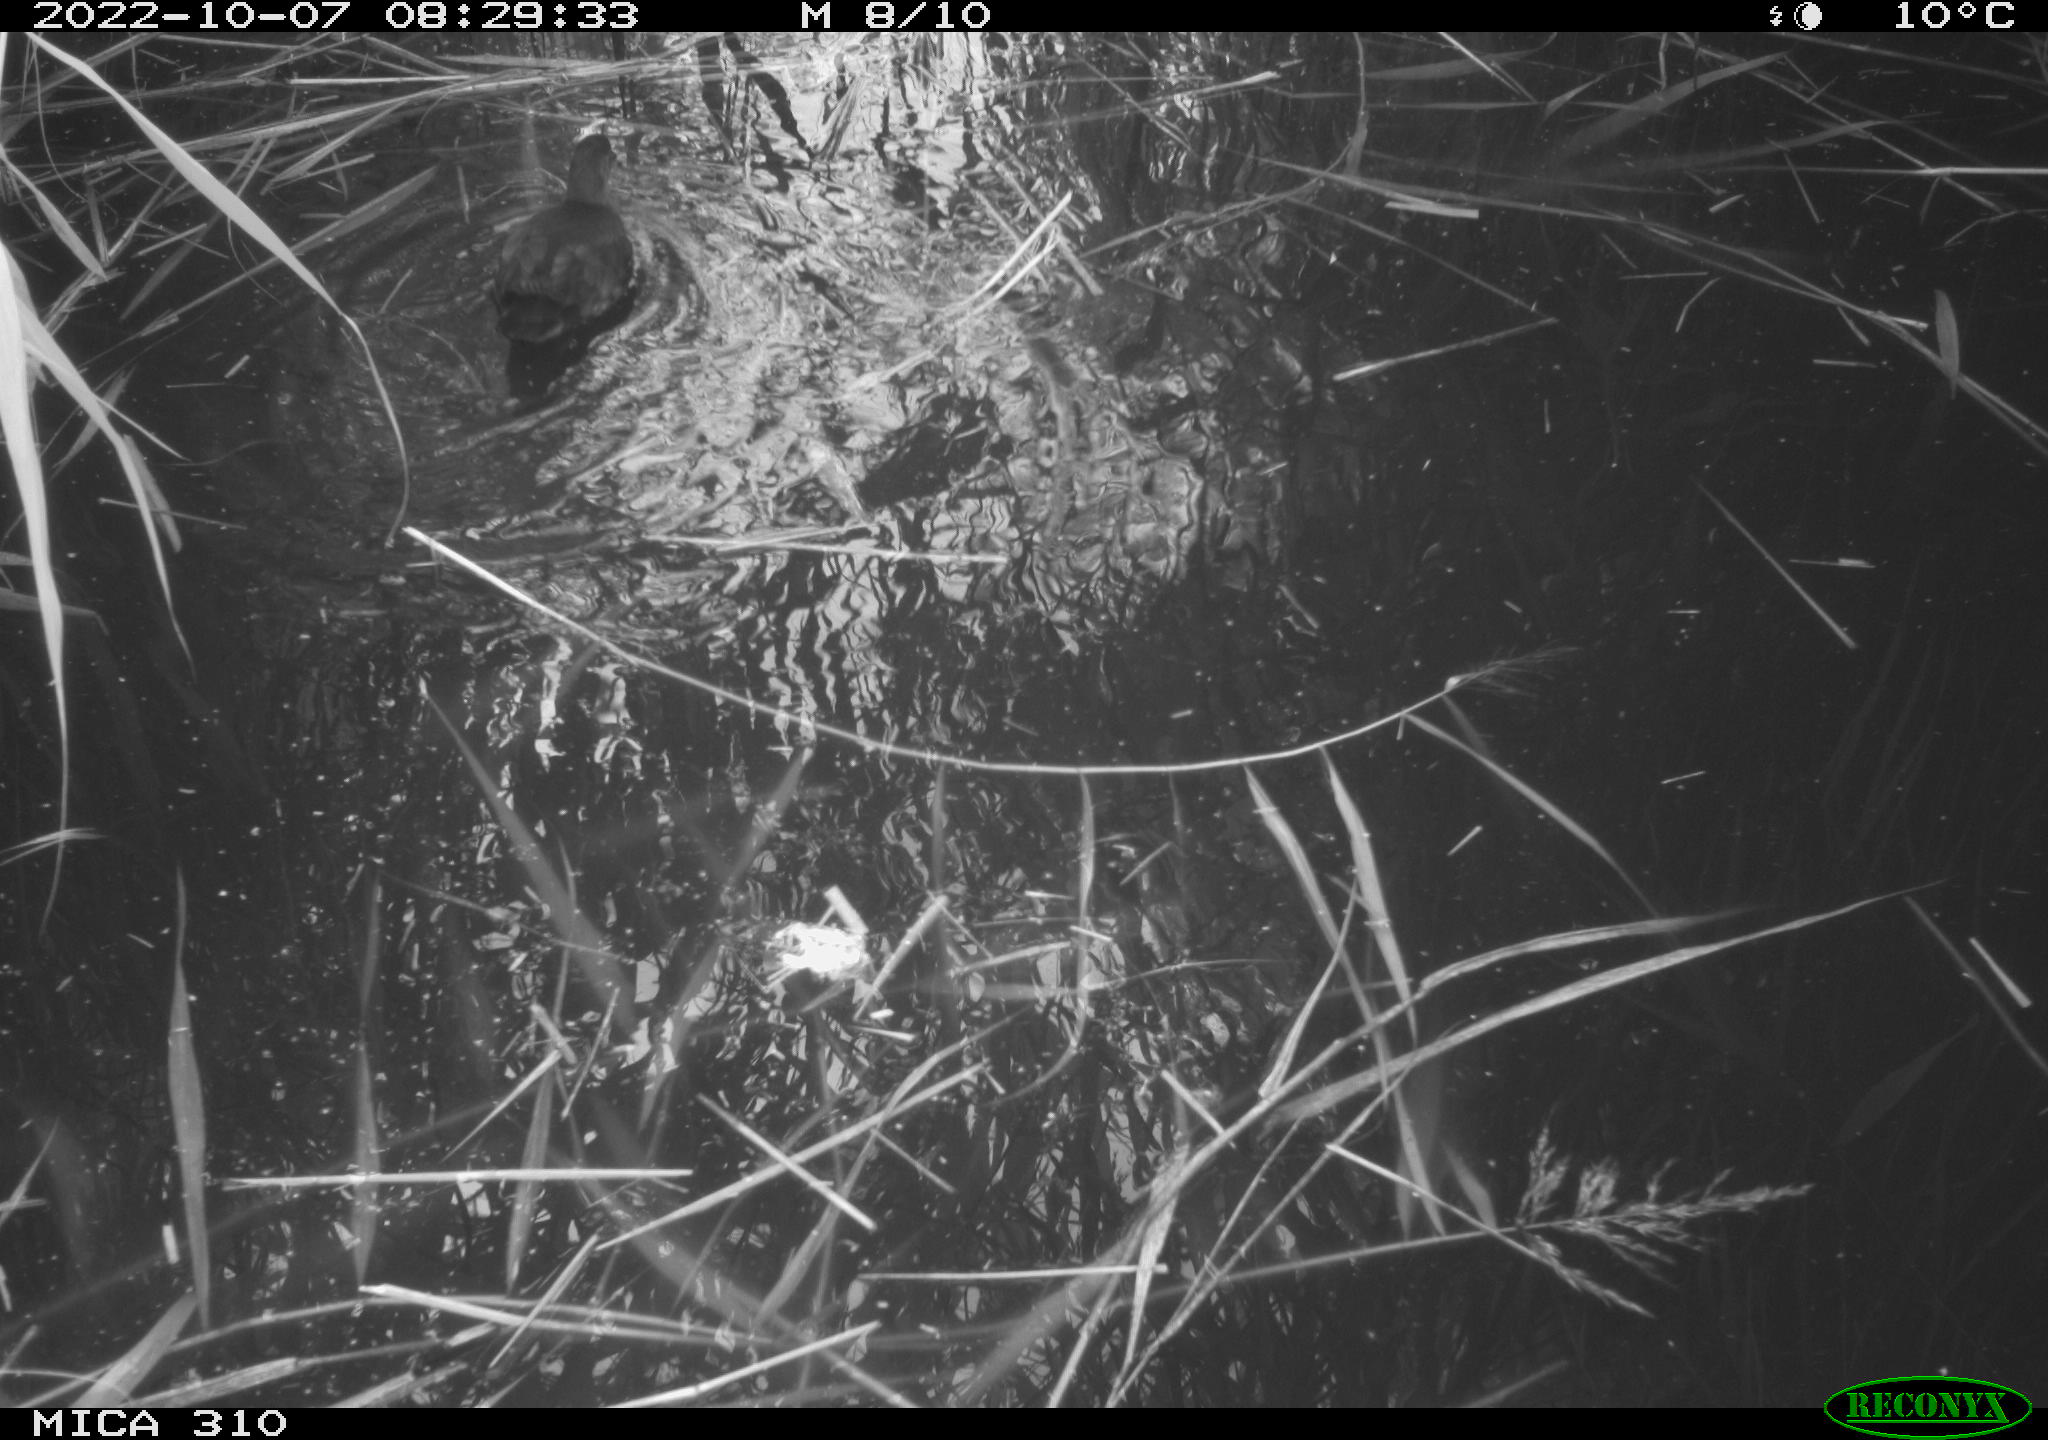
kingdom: Animalia
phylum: Chordata
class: Aves
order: Gruiformes
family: Rallidae
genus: Gallinula
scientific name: Gallinula chloropus
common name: Common moorhen
